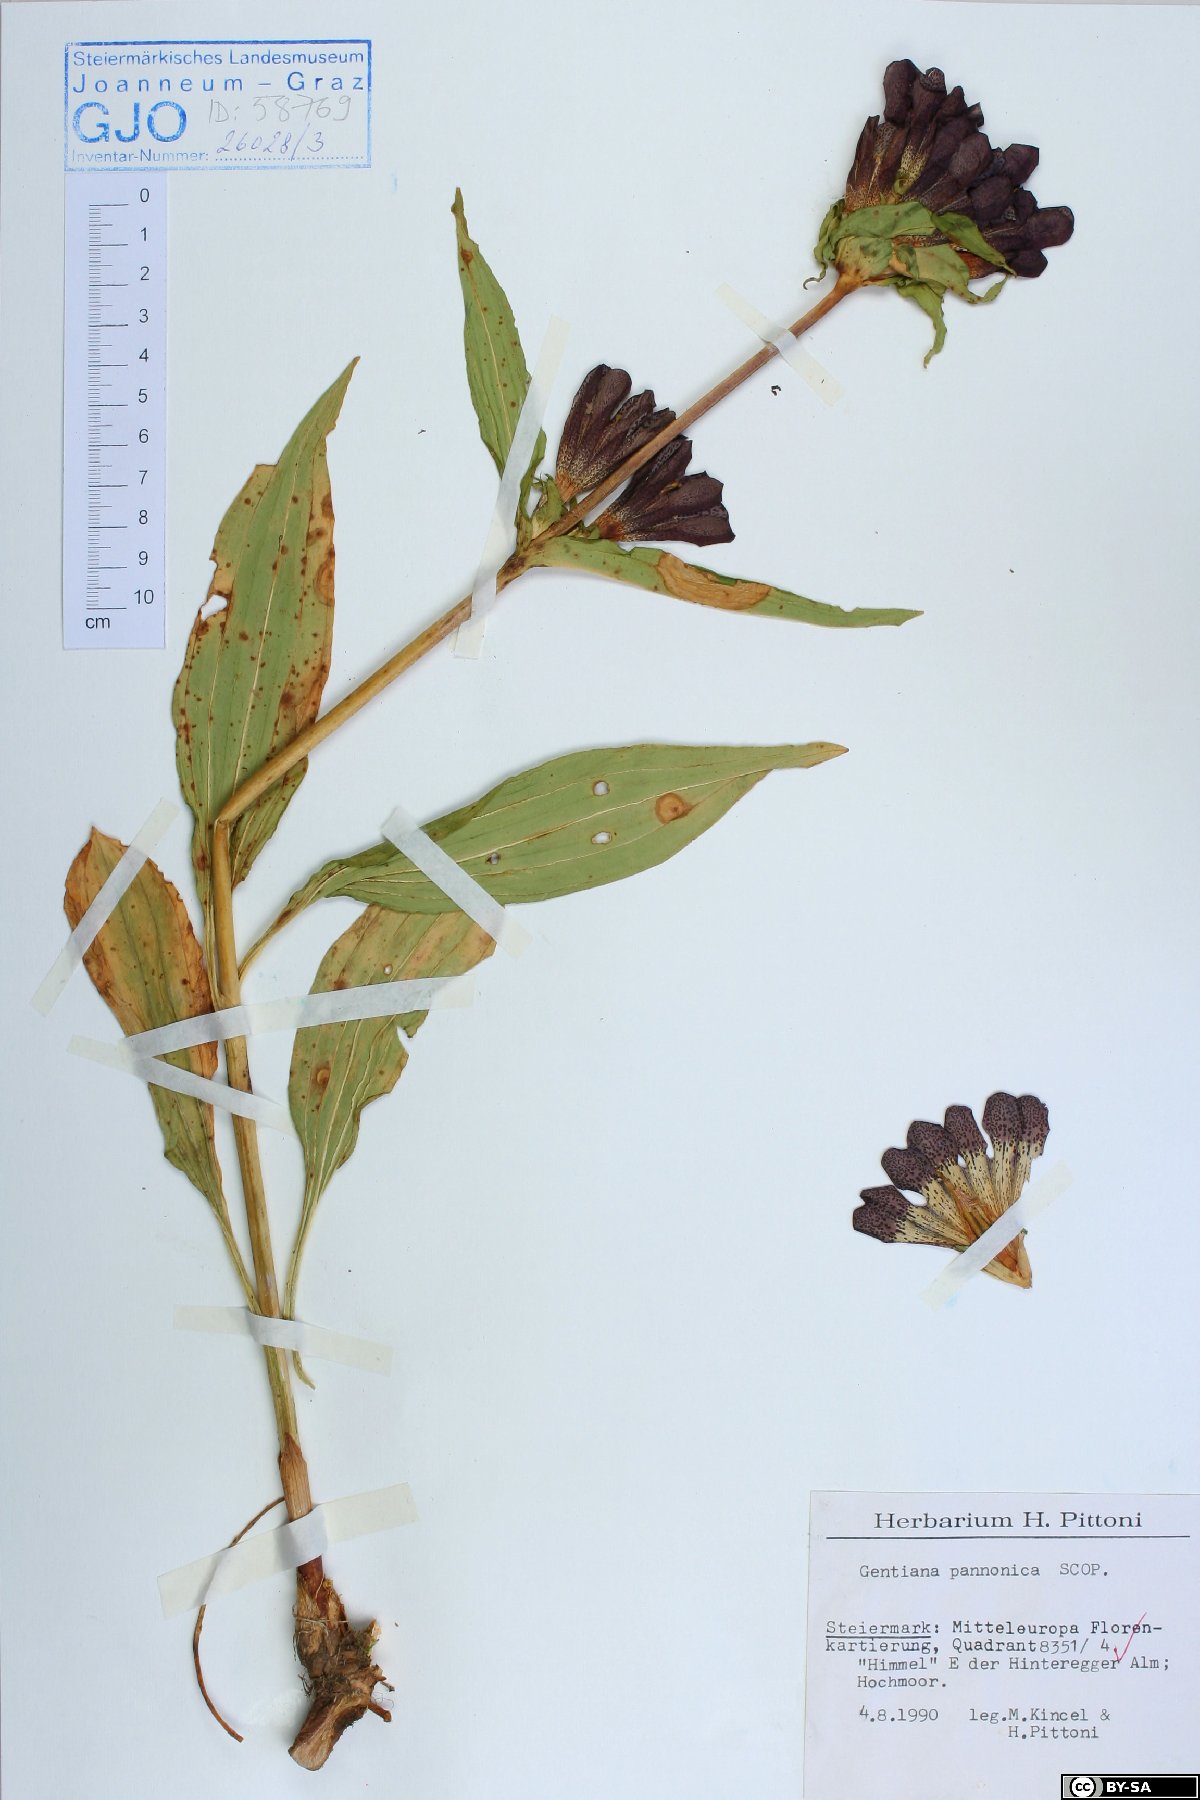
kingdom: Plantae
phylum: Tracheophyta
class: Magnoliopsida
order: Gentianales
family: Gentianaceae
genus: Gentiana
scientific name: Gentiana pannonica
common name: Hungarian gentian
